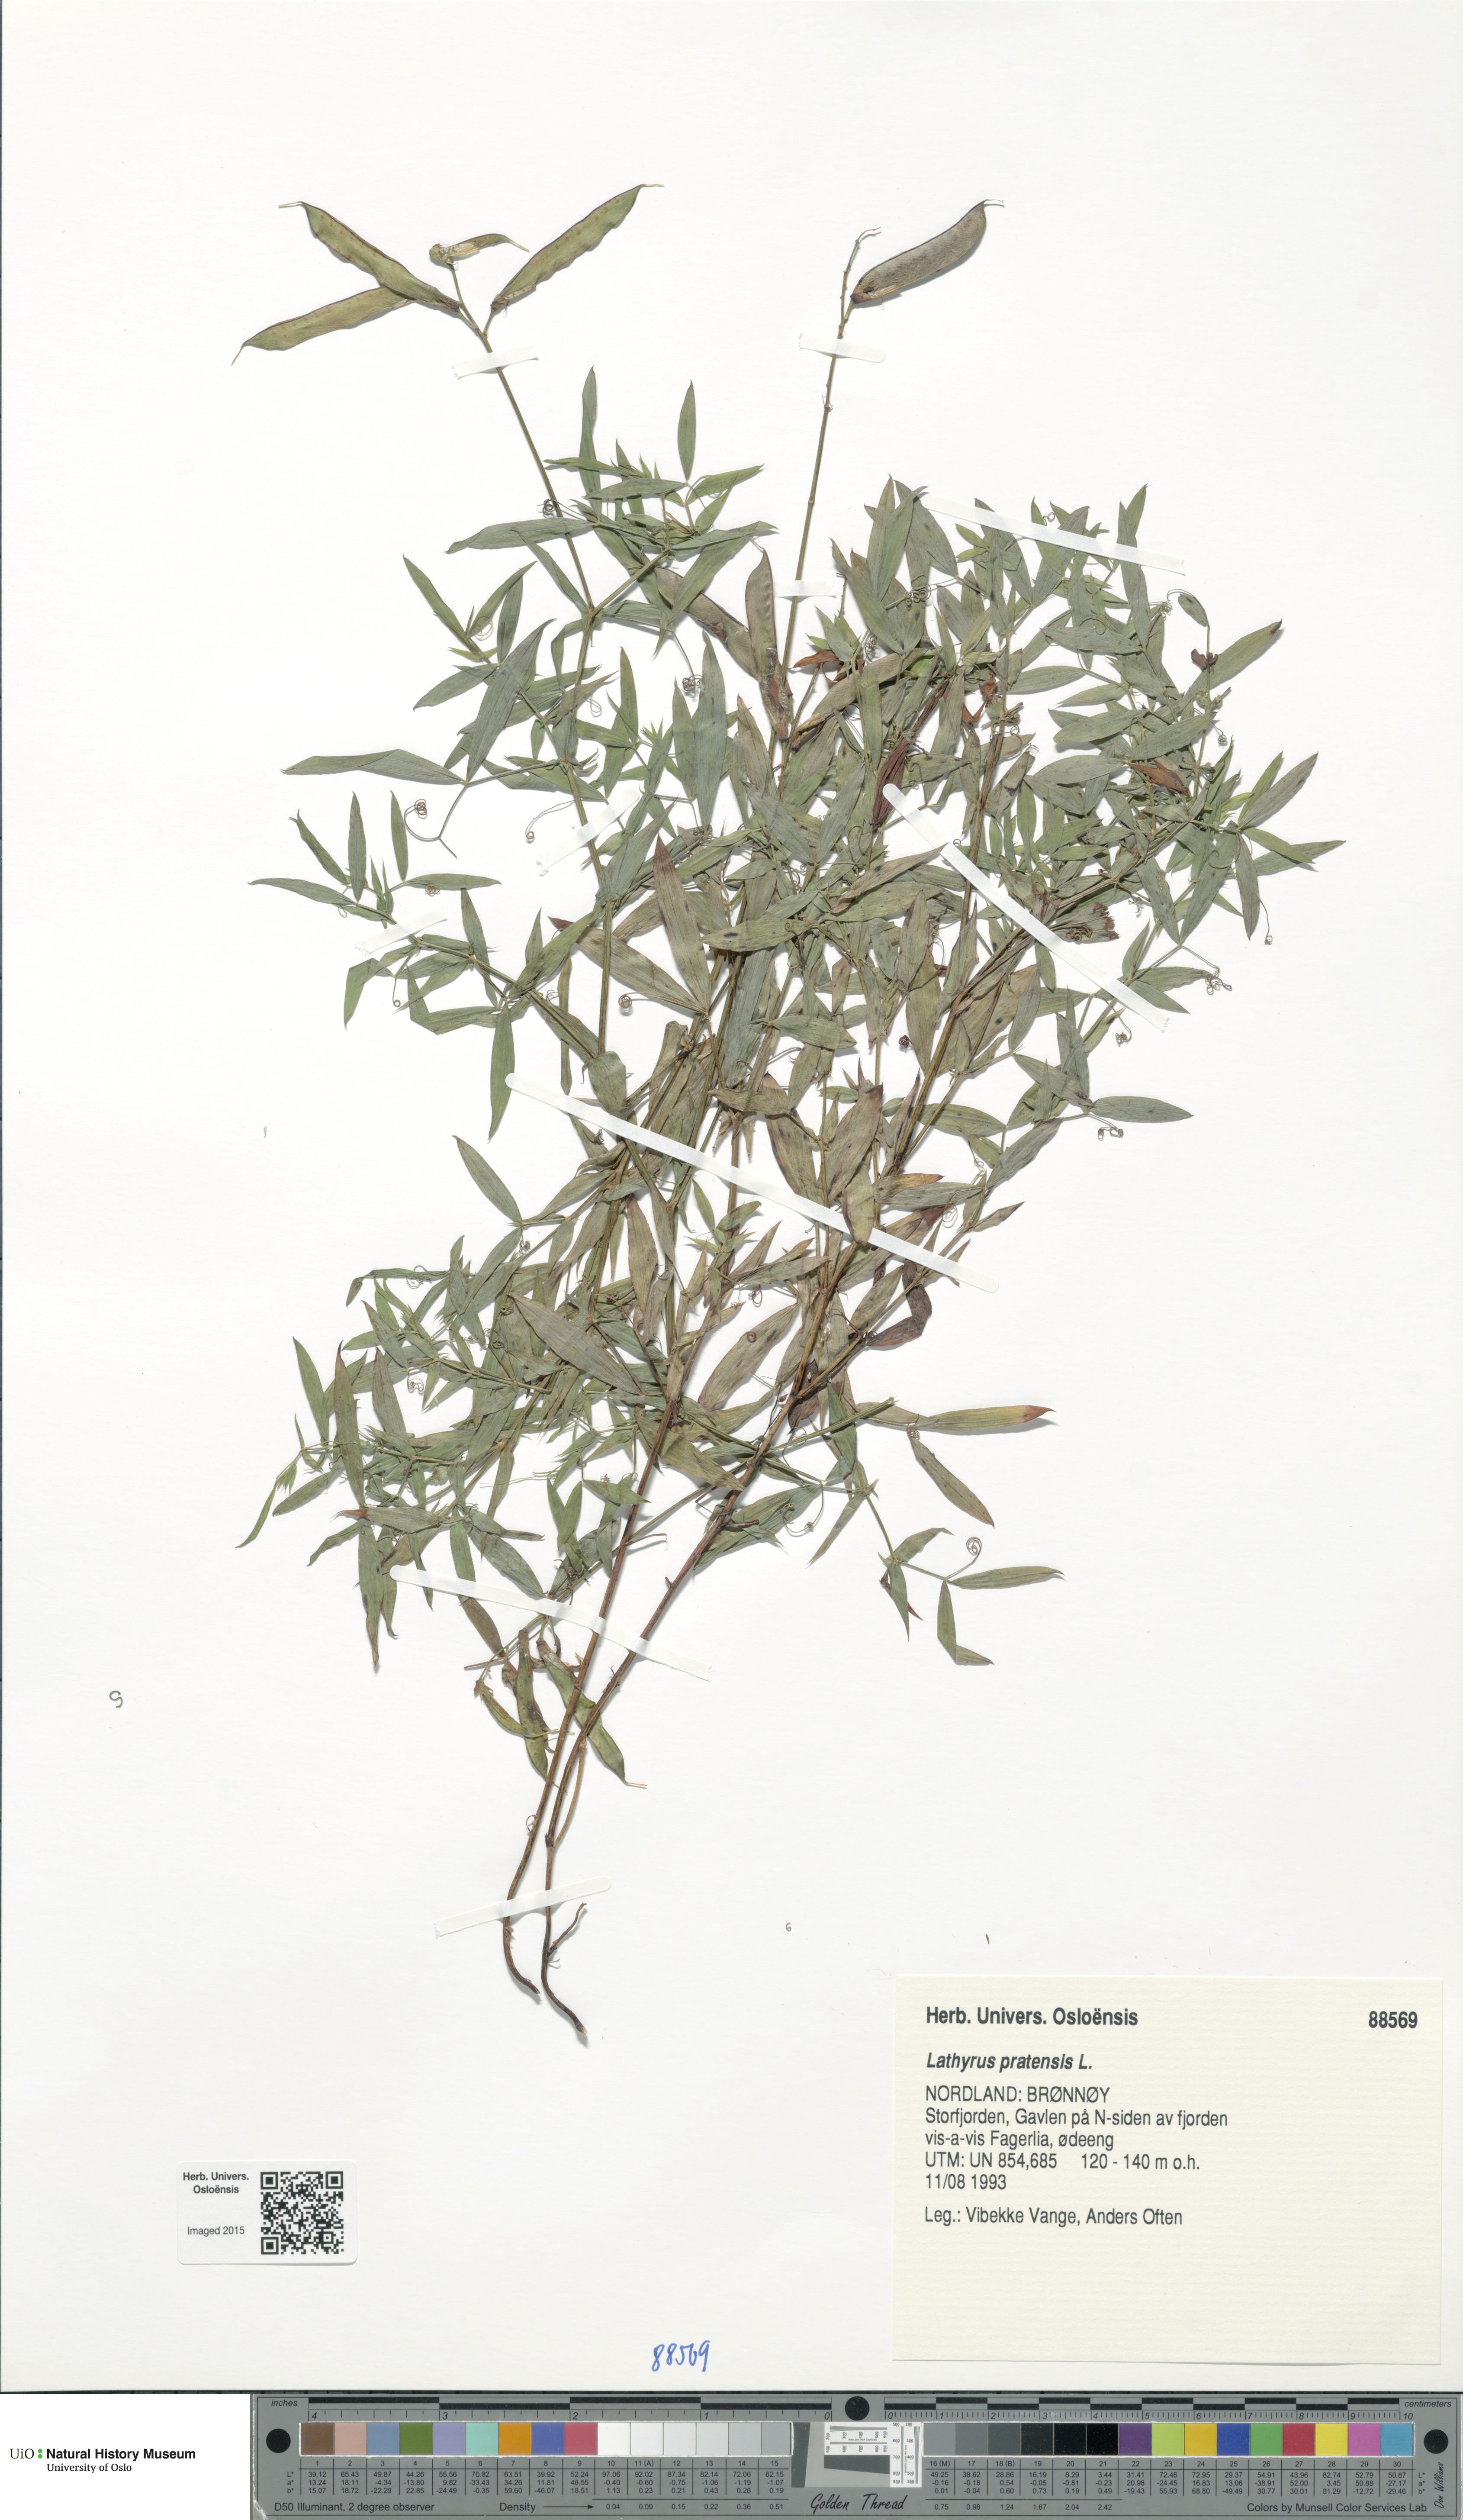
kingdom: Plantae
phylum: Tracheophyta
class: Magnoliopsida
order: Fabales
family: Fabaceae
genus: Lathyrus
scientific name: Lathyrus pratensis
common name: Meadow vetchling
